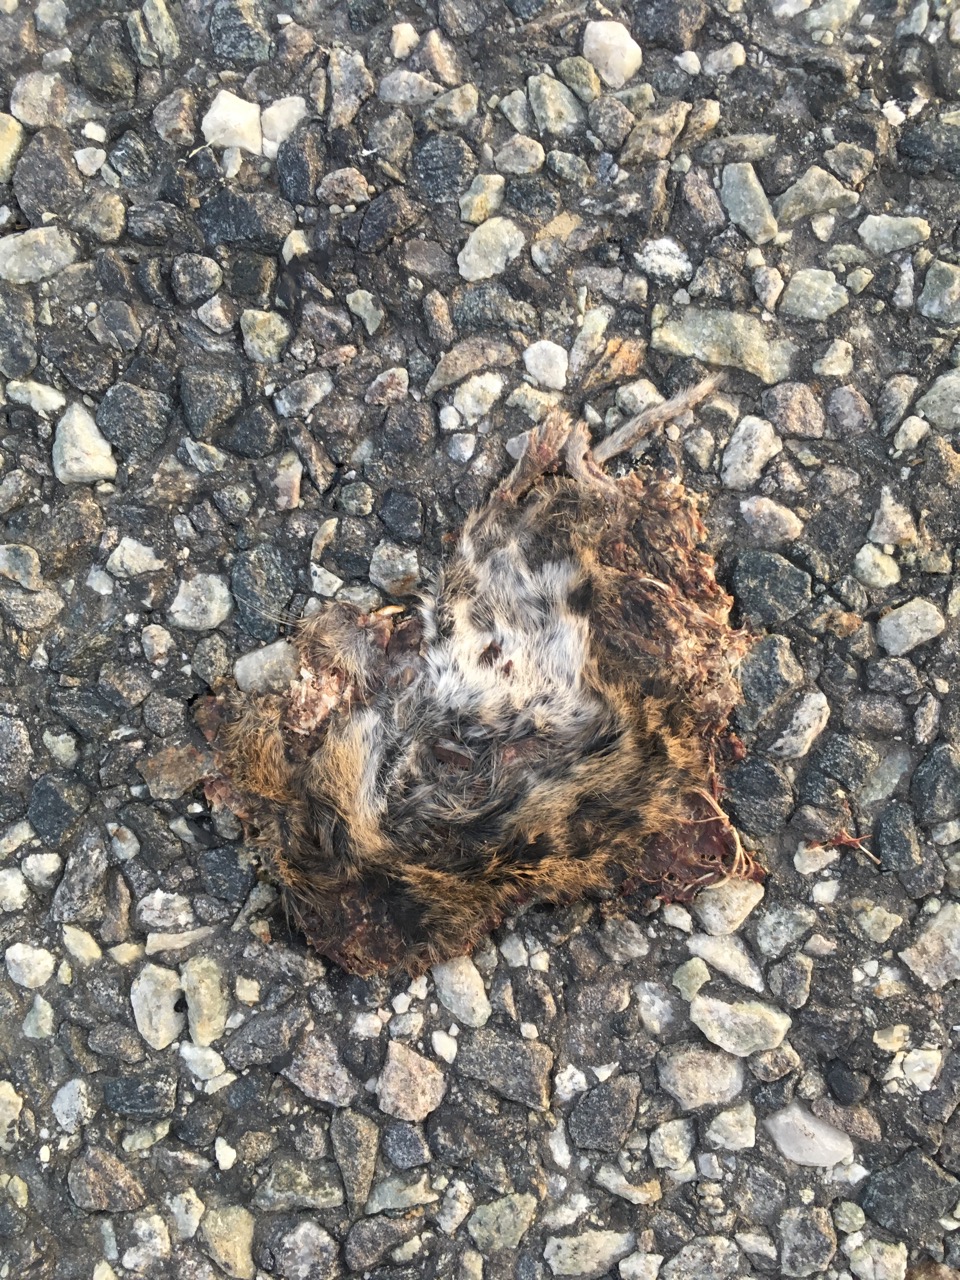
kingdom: Animalia
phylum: Chordata
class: Mammalia
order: Rodentia
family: Cricetidae
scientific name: Cricetidae
